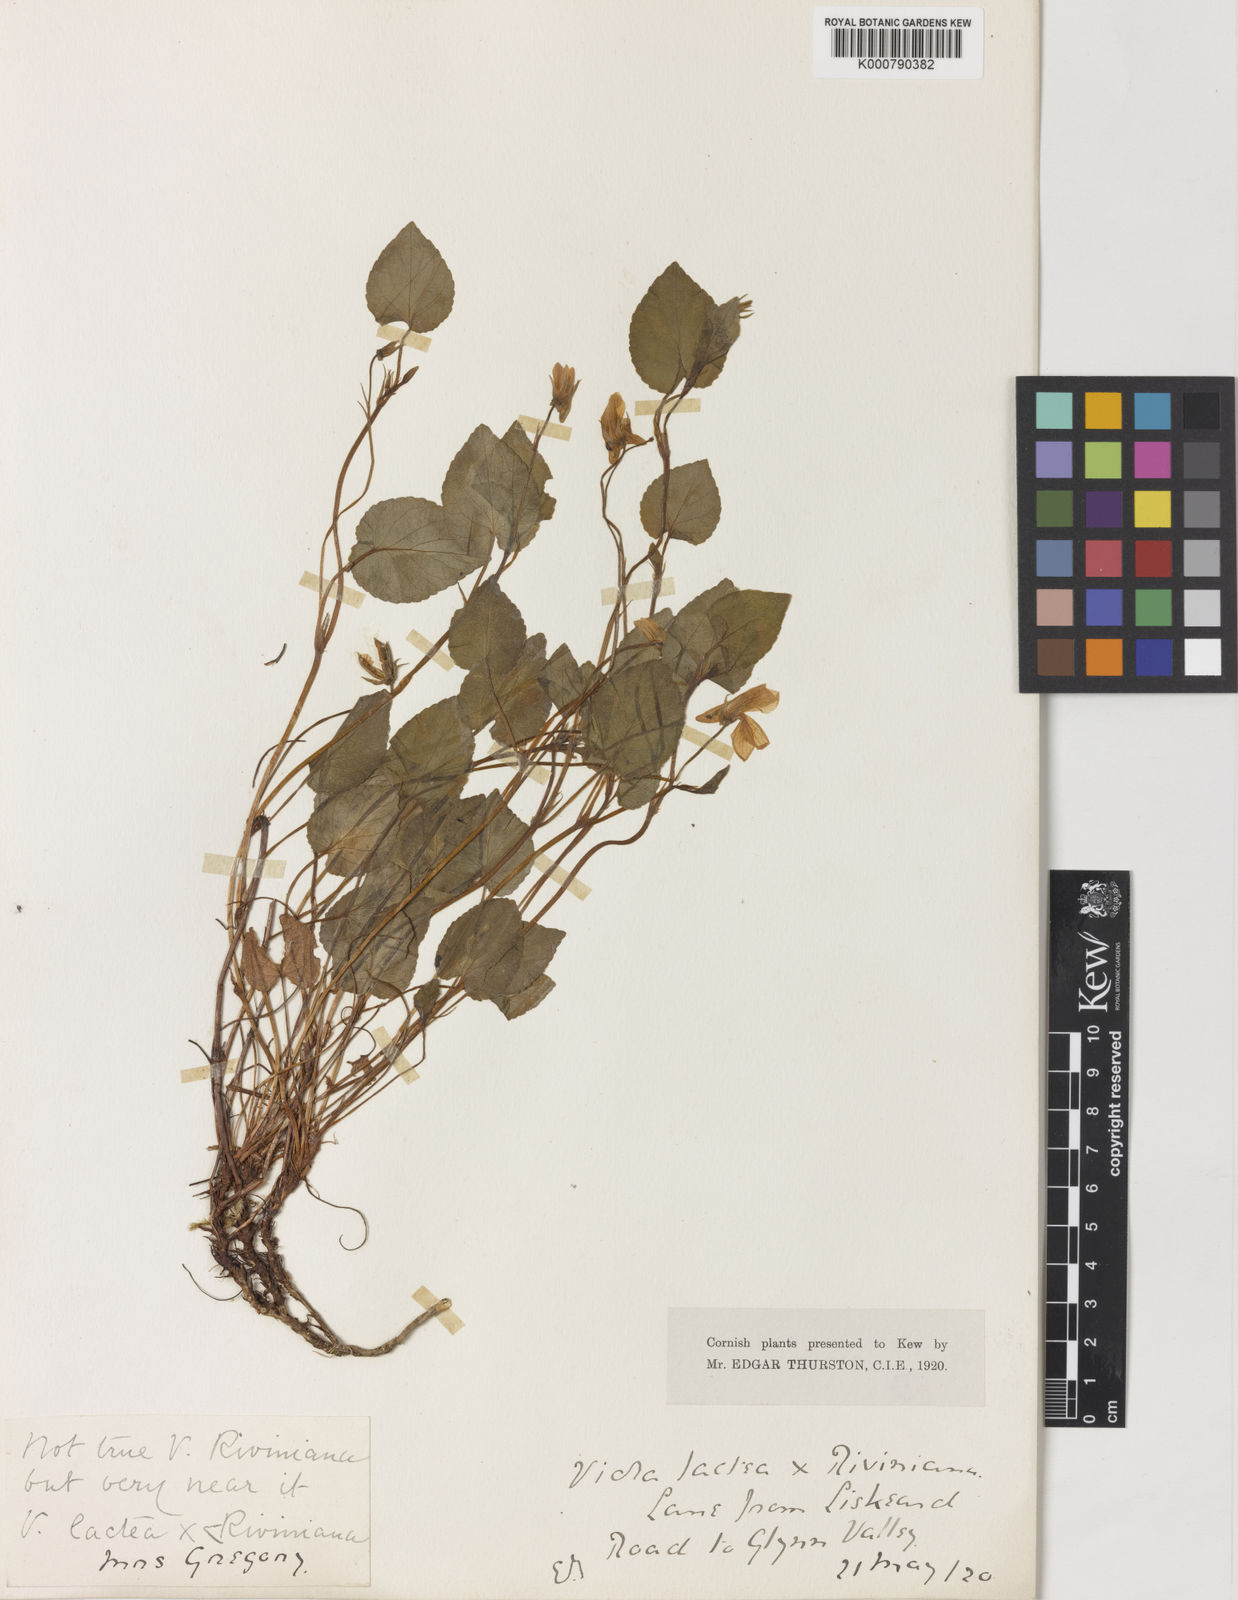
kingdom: Plantae
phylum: Tracheophyta
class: Magnoliopsida
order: Malpighiales
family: Violaceae
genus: Viola
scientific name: Viola lactea
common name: Pale dog-violet
